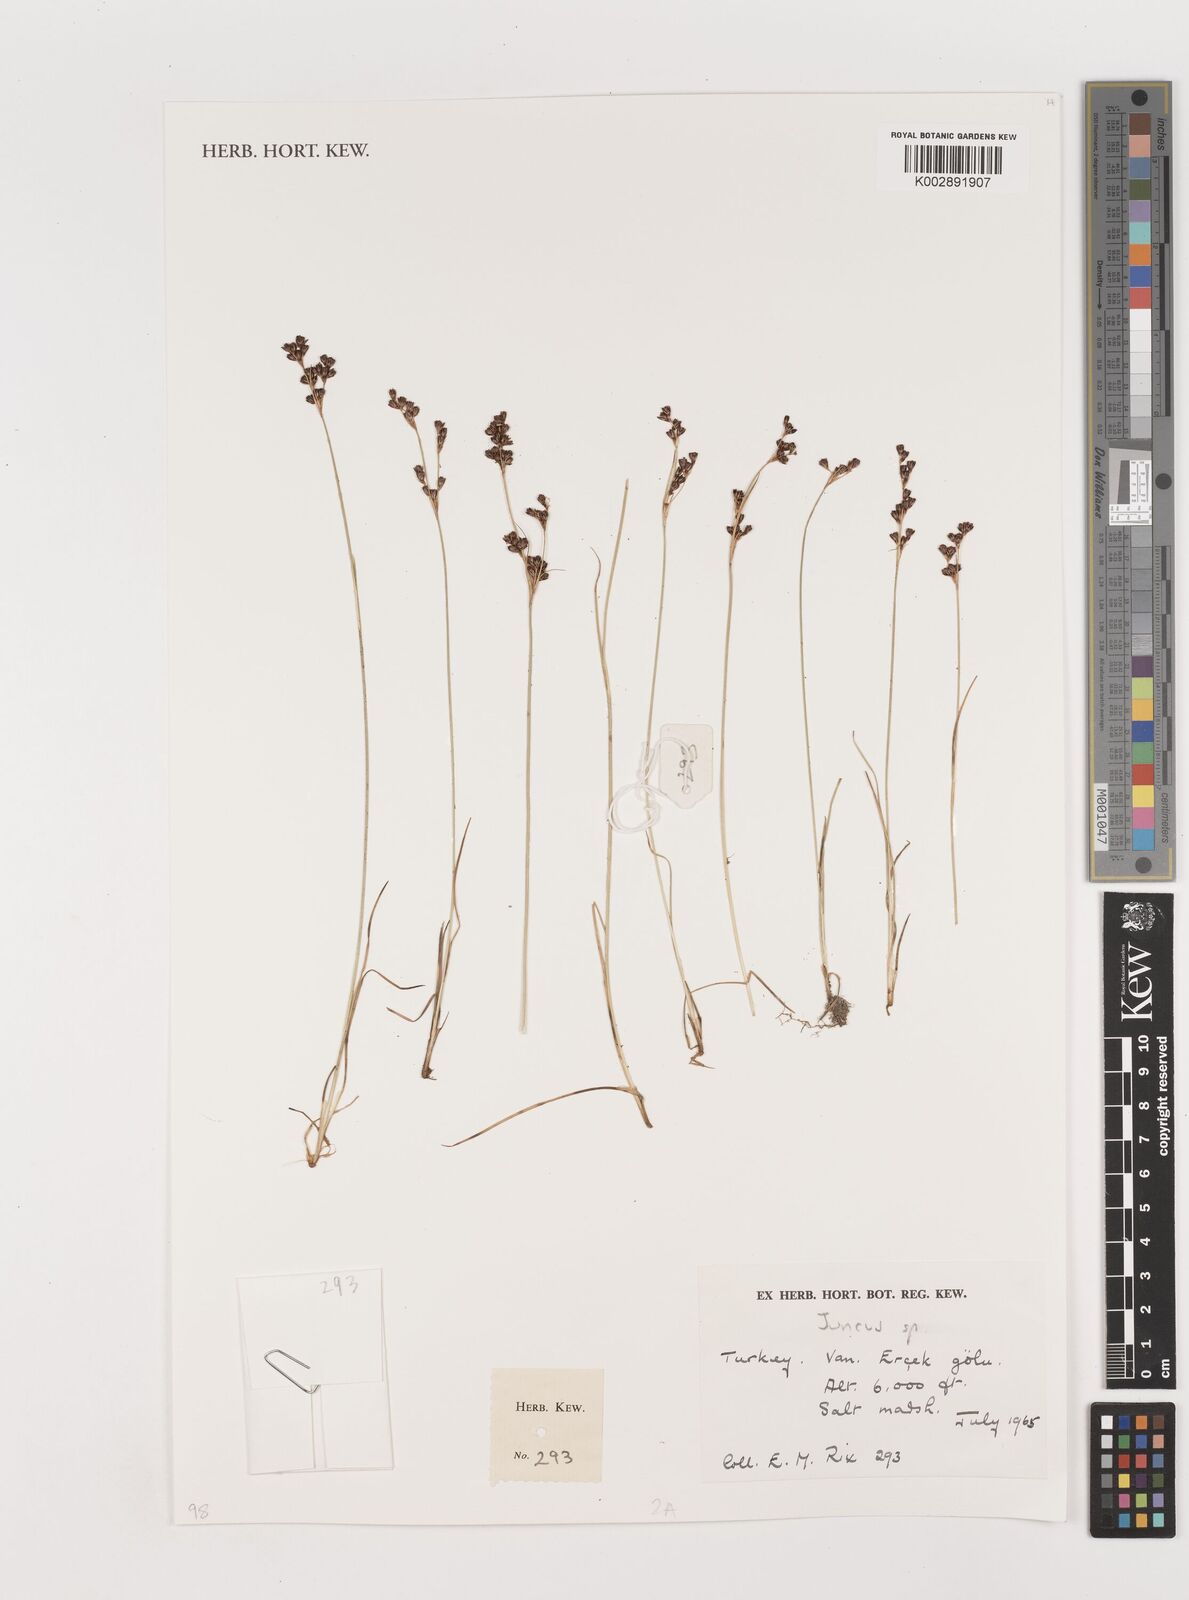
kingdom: Plantae
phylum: Tracheophyta
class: Liliopsida
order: Poales
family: Juncaceae
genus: Juncus
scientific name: Juncus
